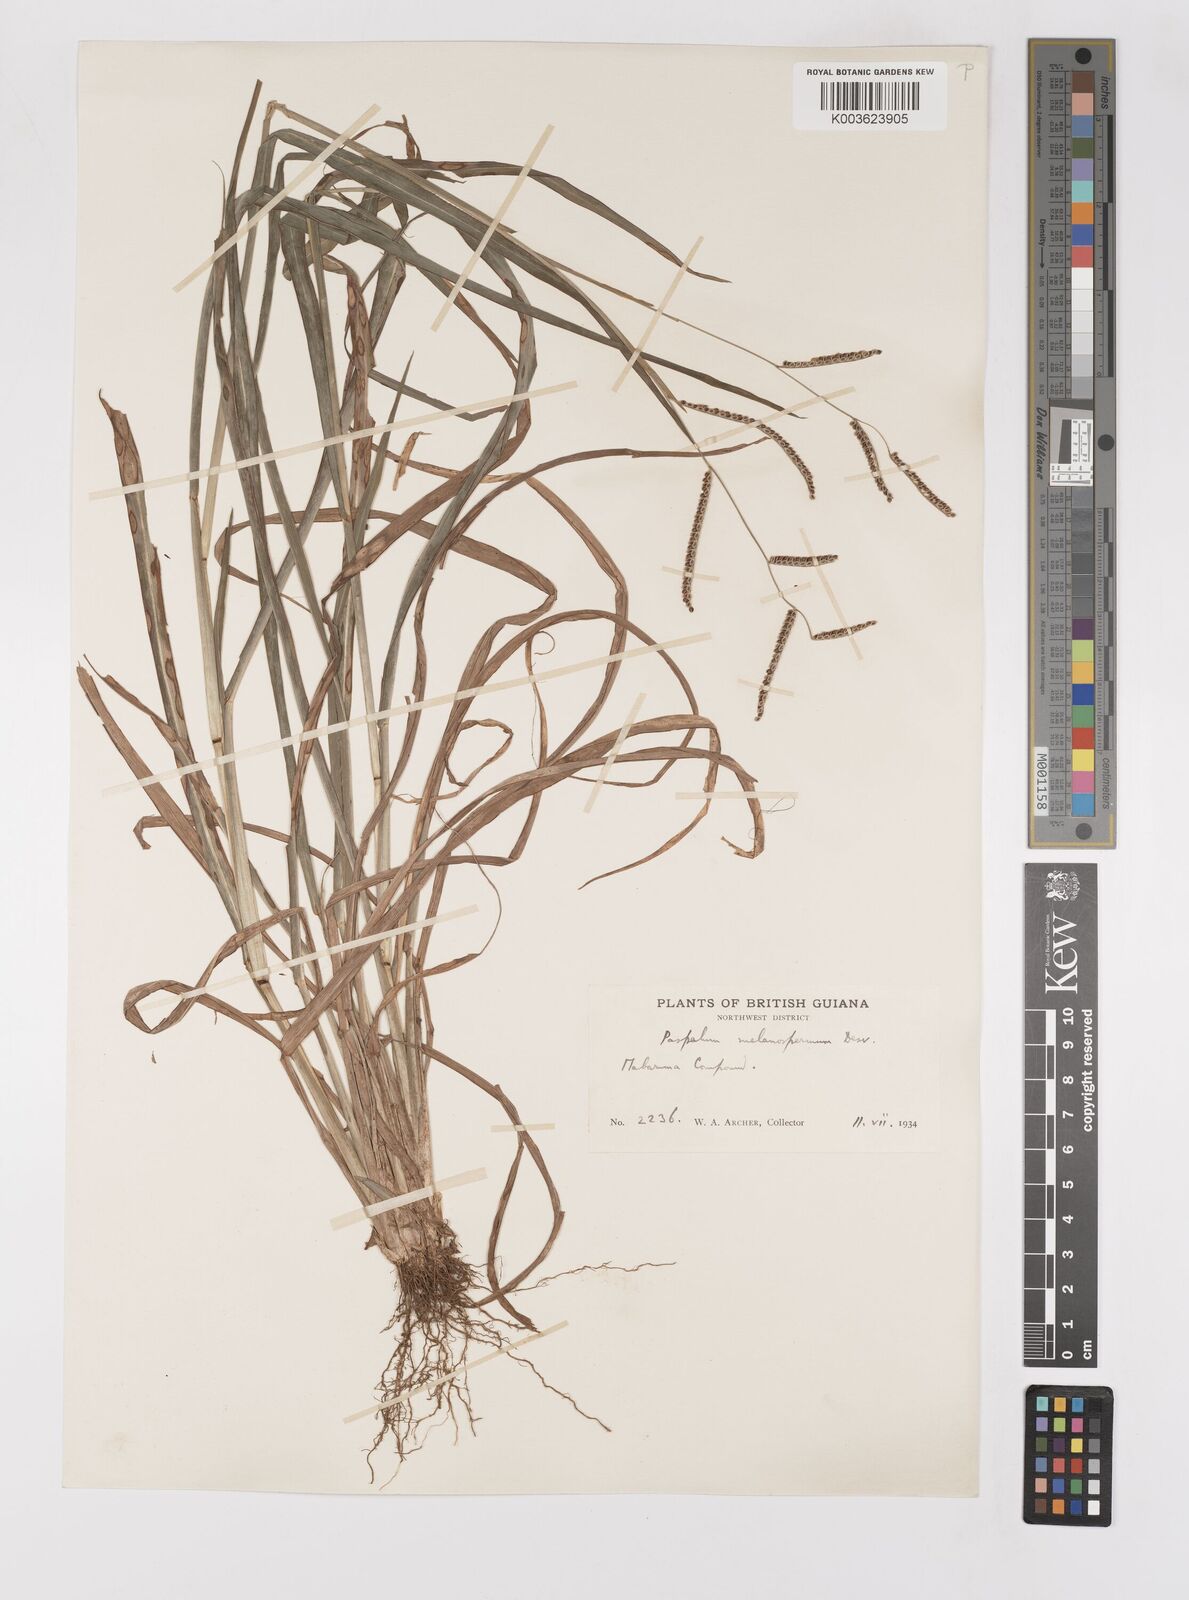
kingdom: Plantae
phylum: Tracheophyta
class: Liliopsida
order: Poales
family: Poaceae
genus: Paspalum
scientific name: Paspalum melanospermum
